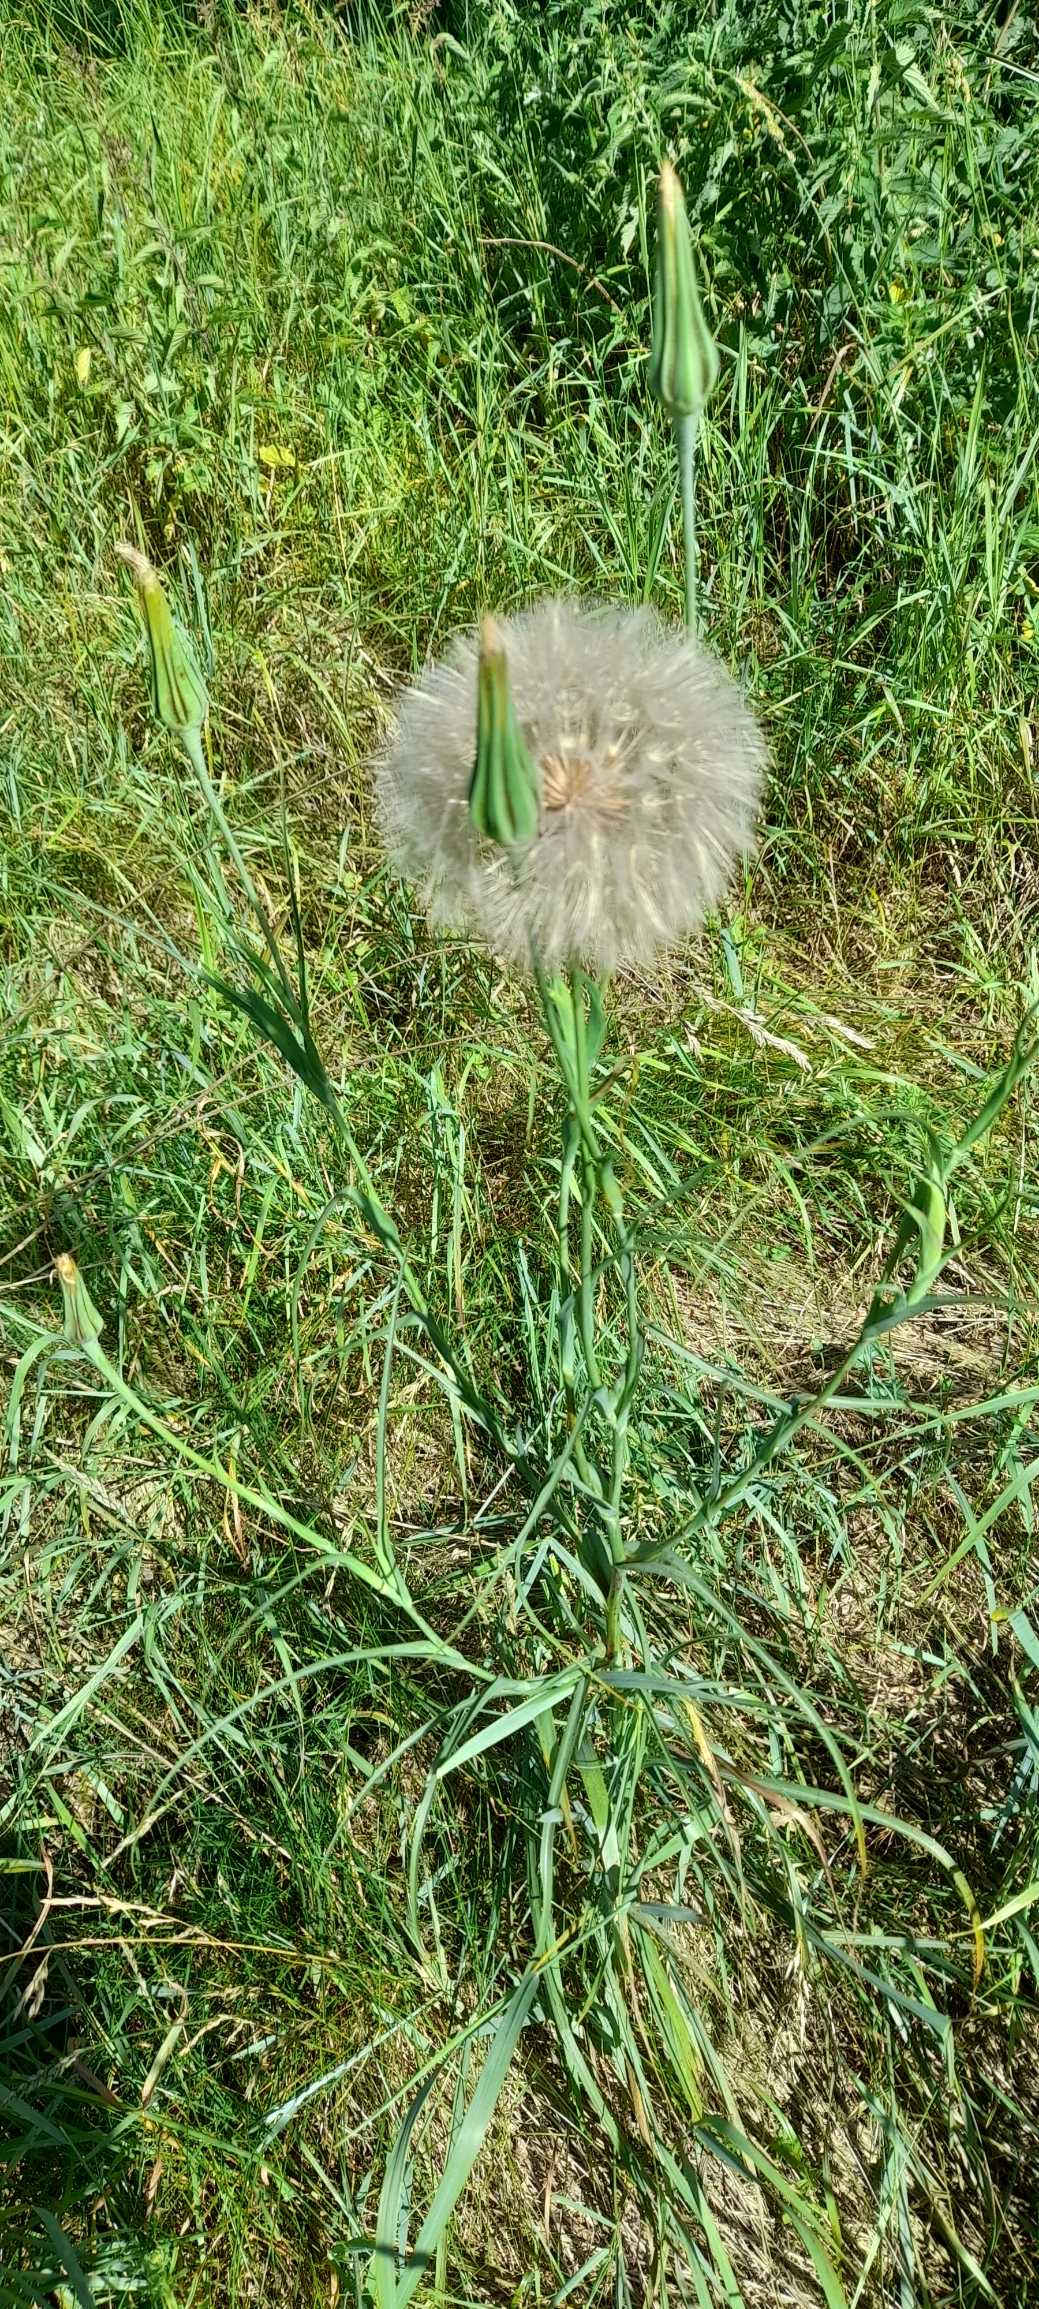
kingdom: Plantae
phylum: Tracheophyta
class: Magnoliopsida
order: Asterales
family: Asteraceae
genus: Tragopogon
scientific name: Tragopogon pratensis
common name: Gedeskæg
